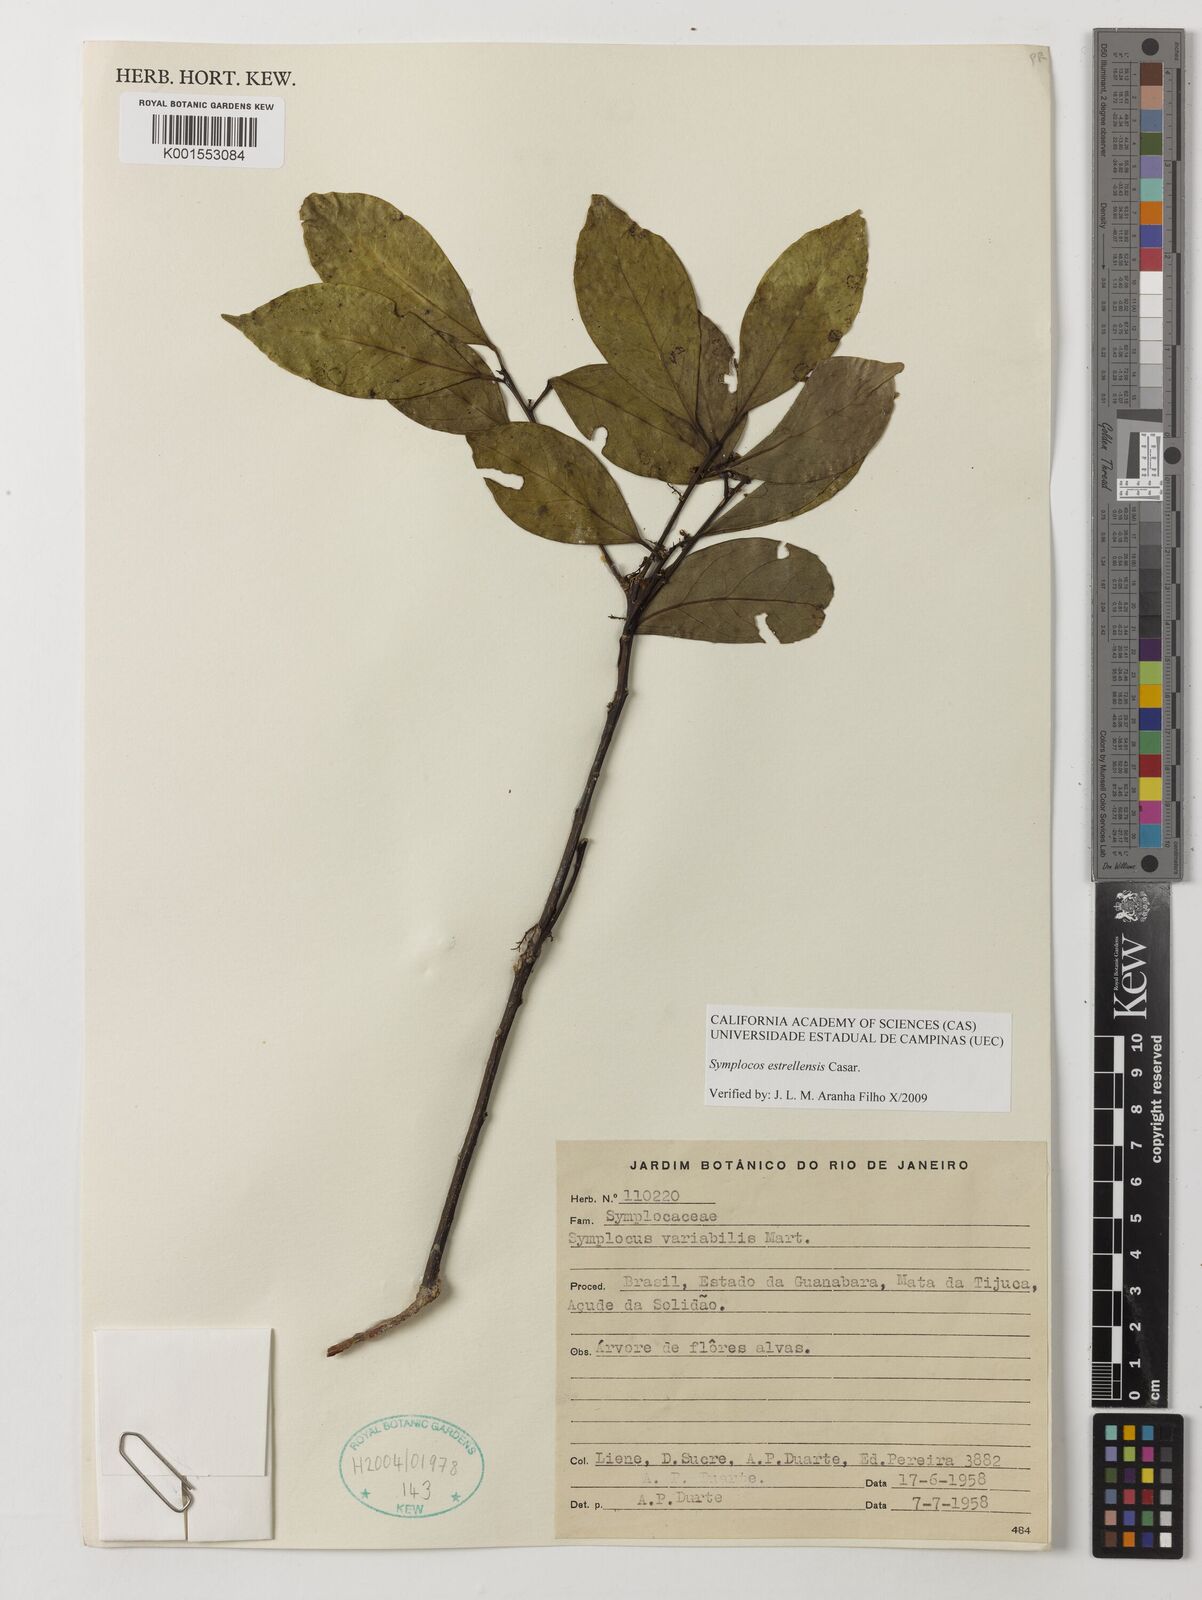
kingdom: Plantae
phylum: Tracheophyta
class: Magnoliopsida
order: Ericales
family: Symplocaceae
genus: Symplocos
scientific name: Symplocos estrellensis
